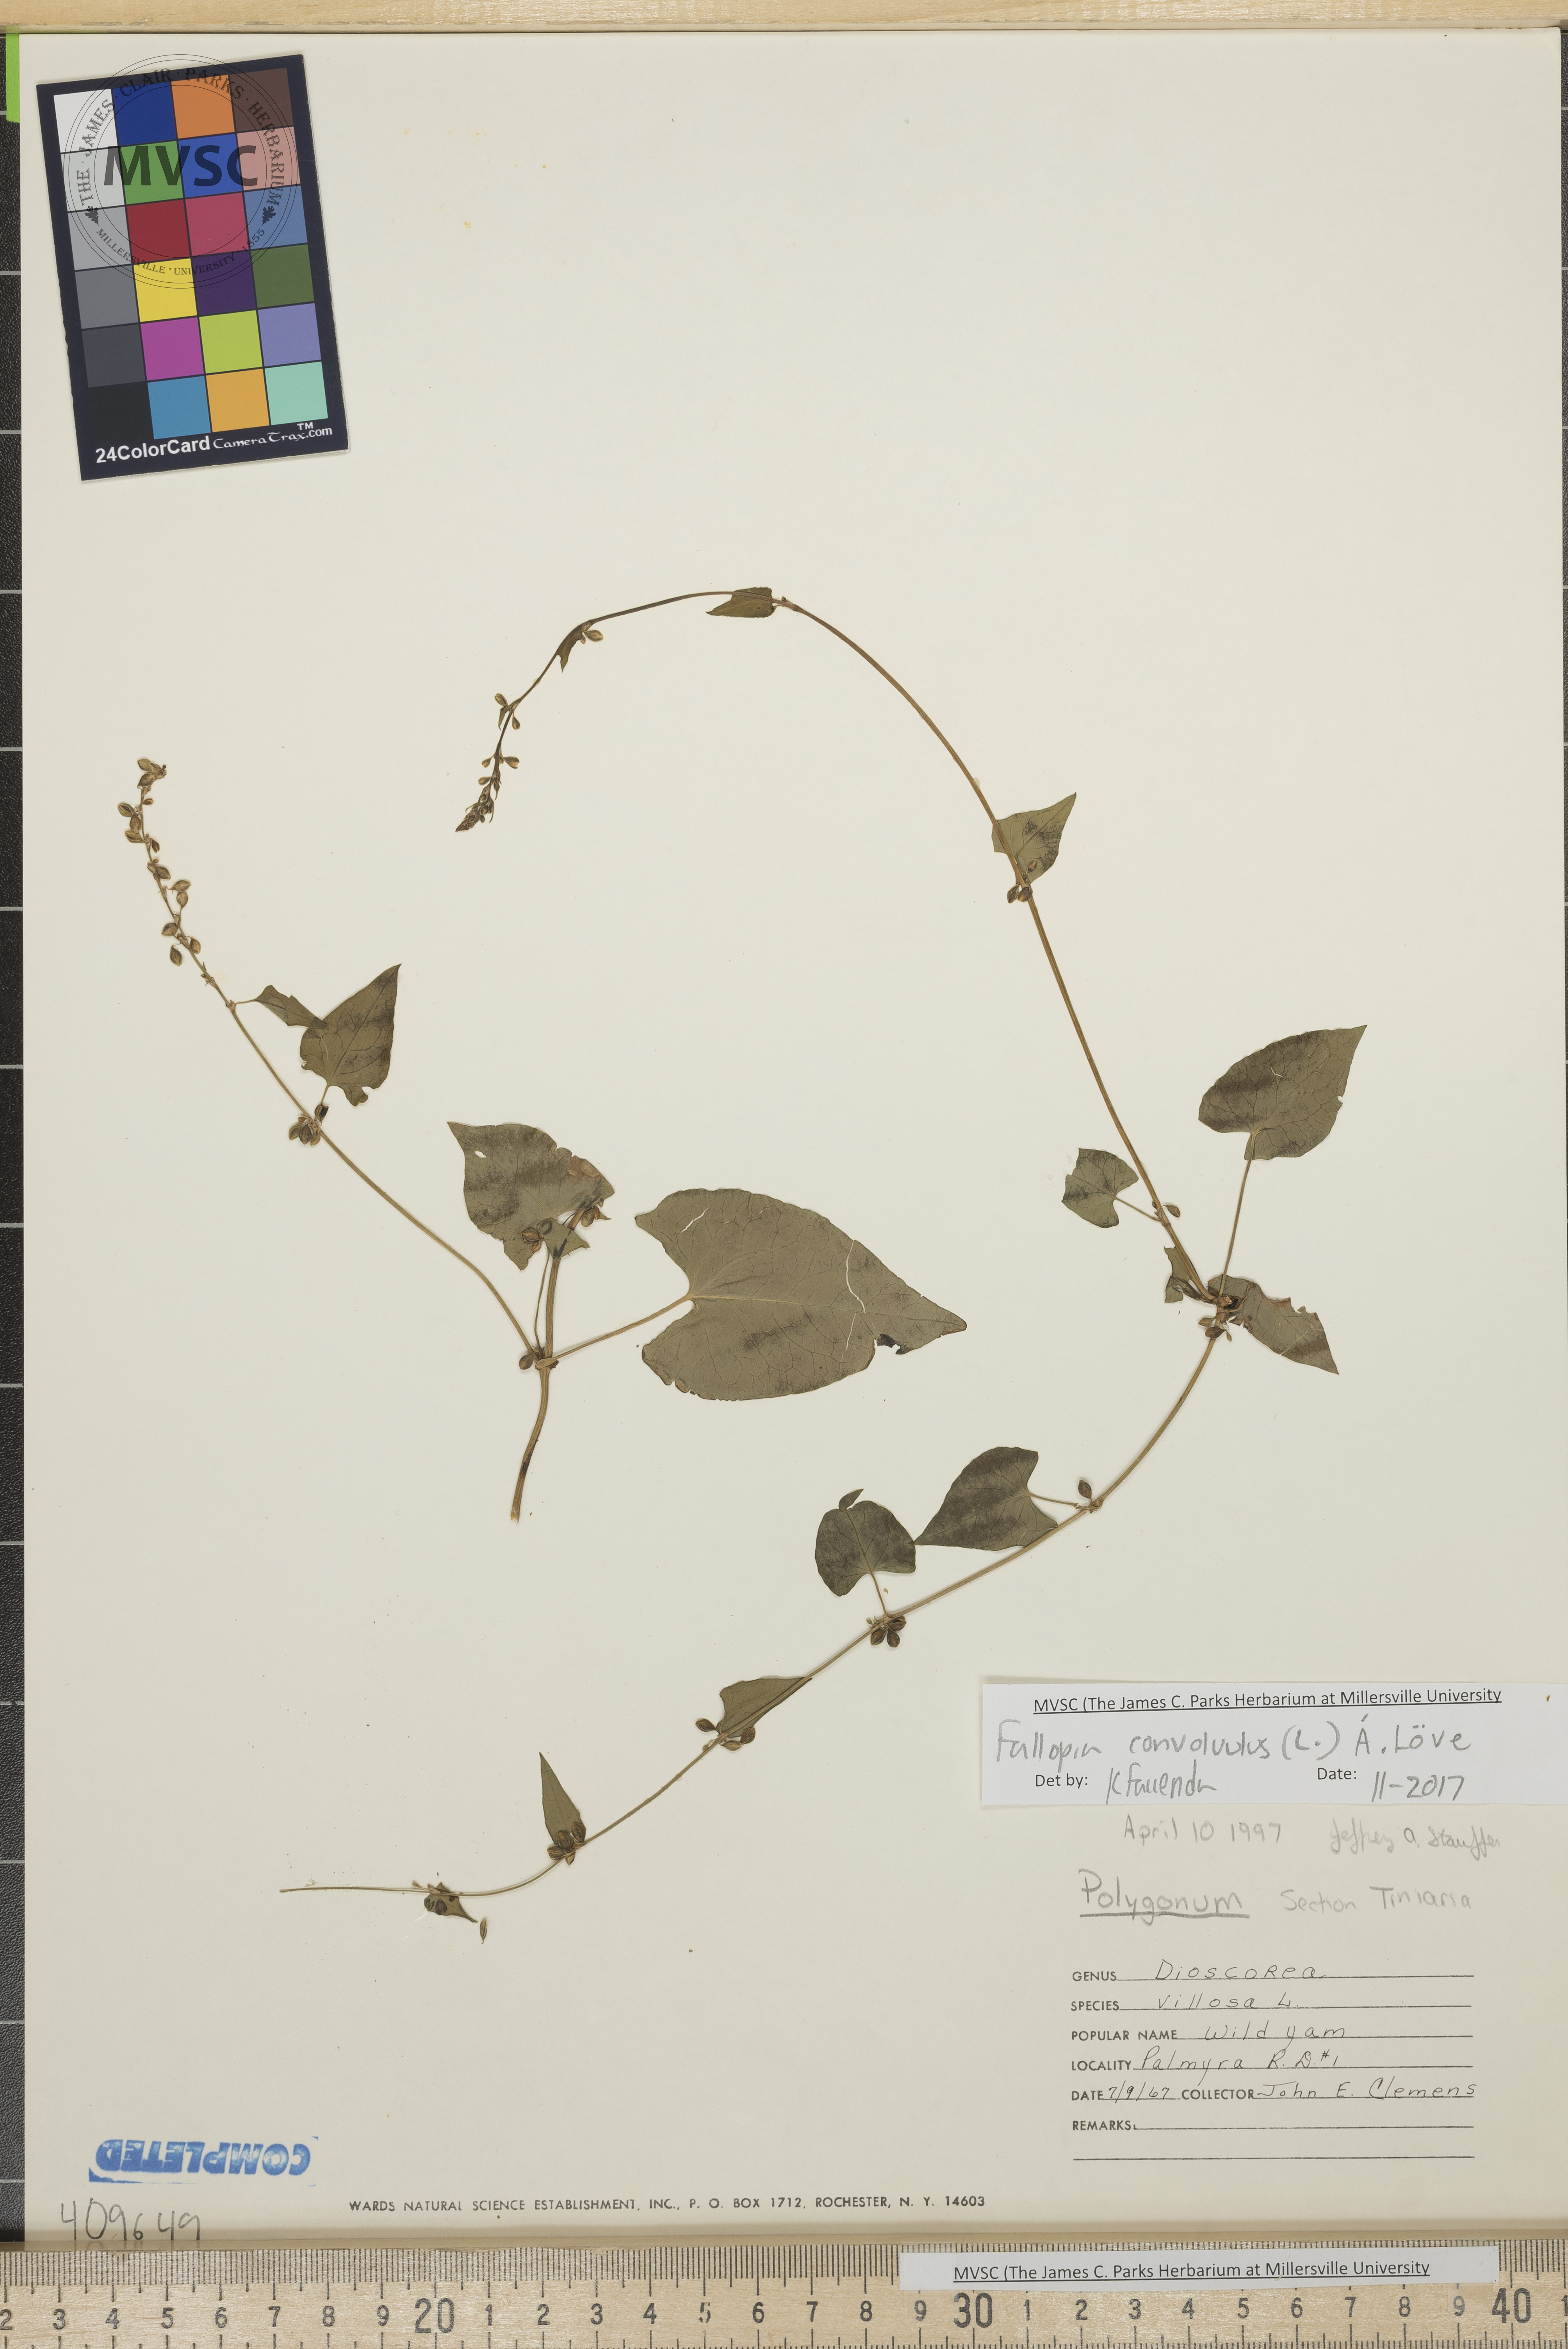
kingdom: Plantae
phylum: Tracheophyta
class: Magnoliopsida
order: Caryophyllales
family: Polygonaceae
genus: Fallopia
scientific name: Fallopia convolvulus
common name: Bindweed
